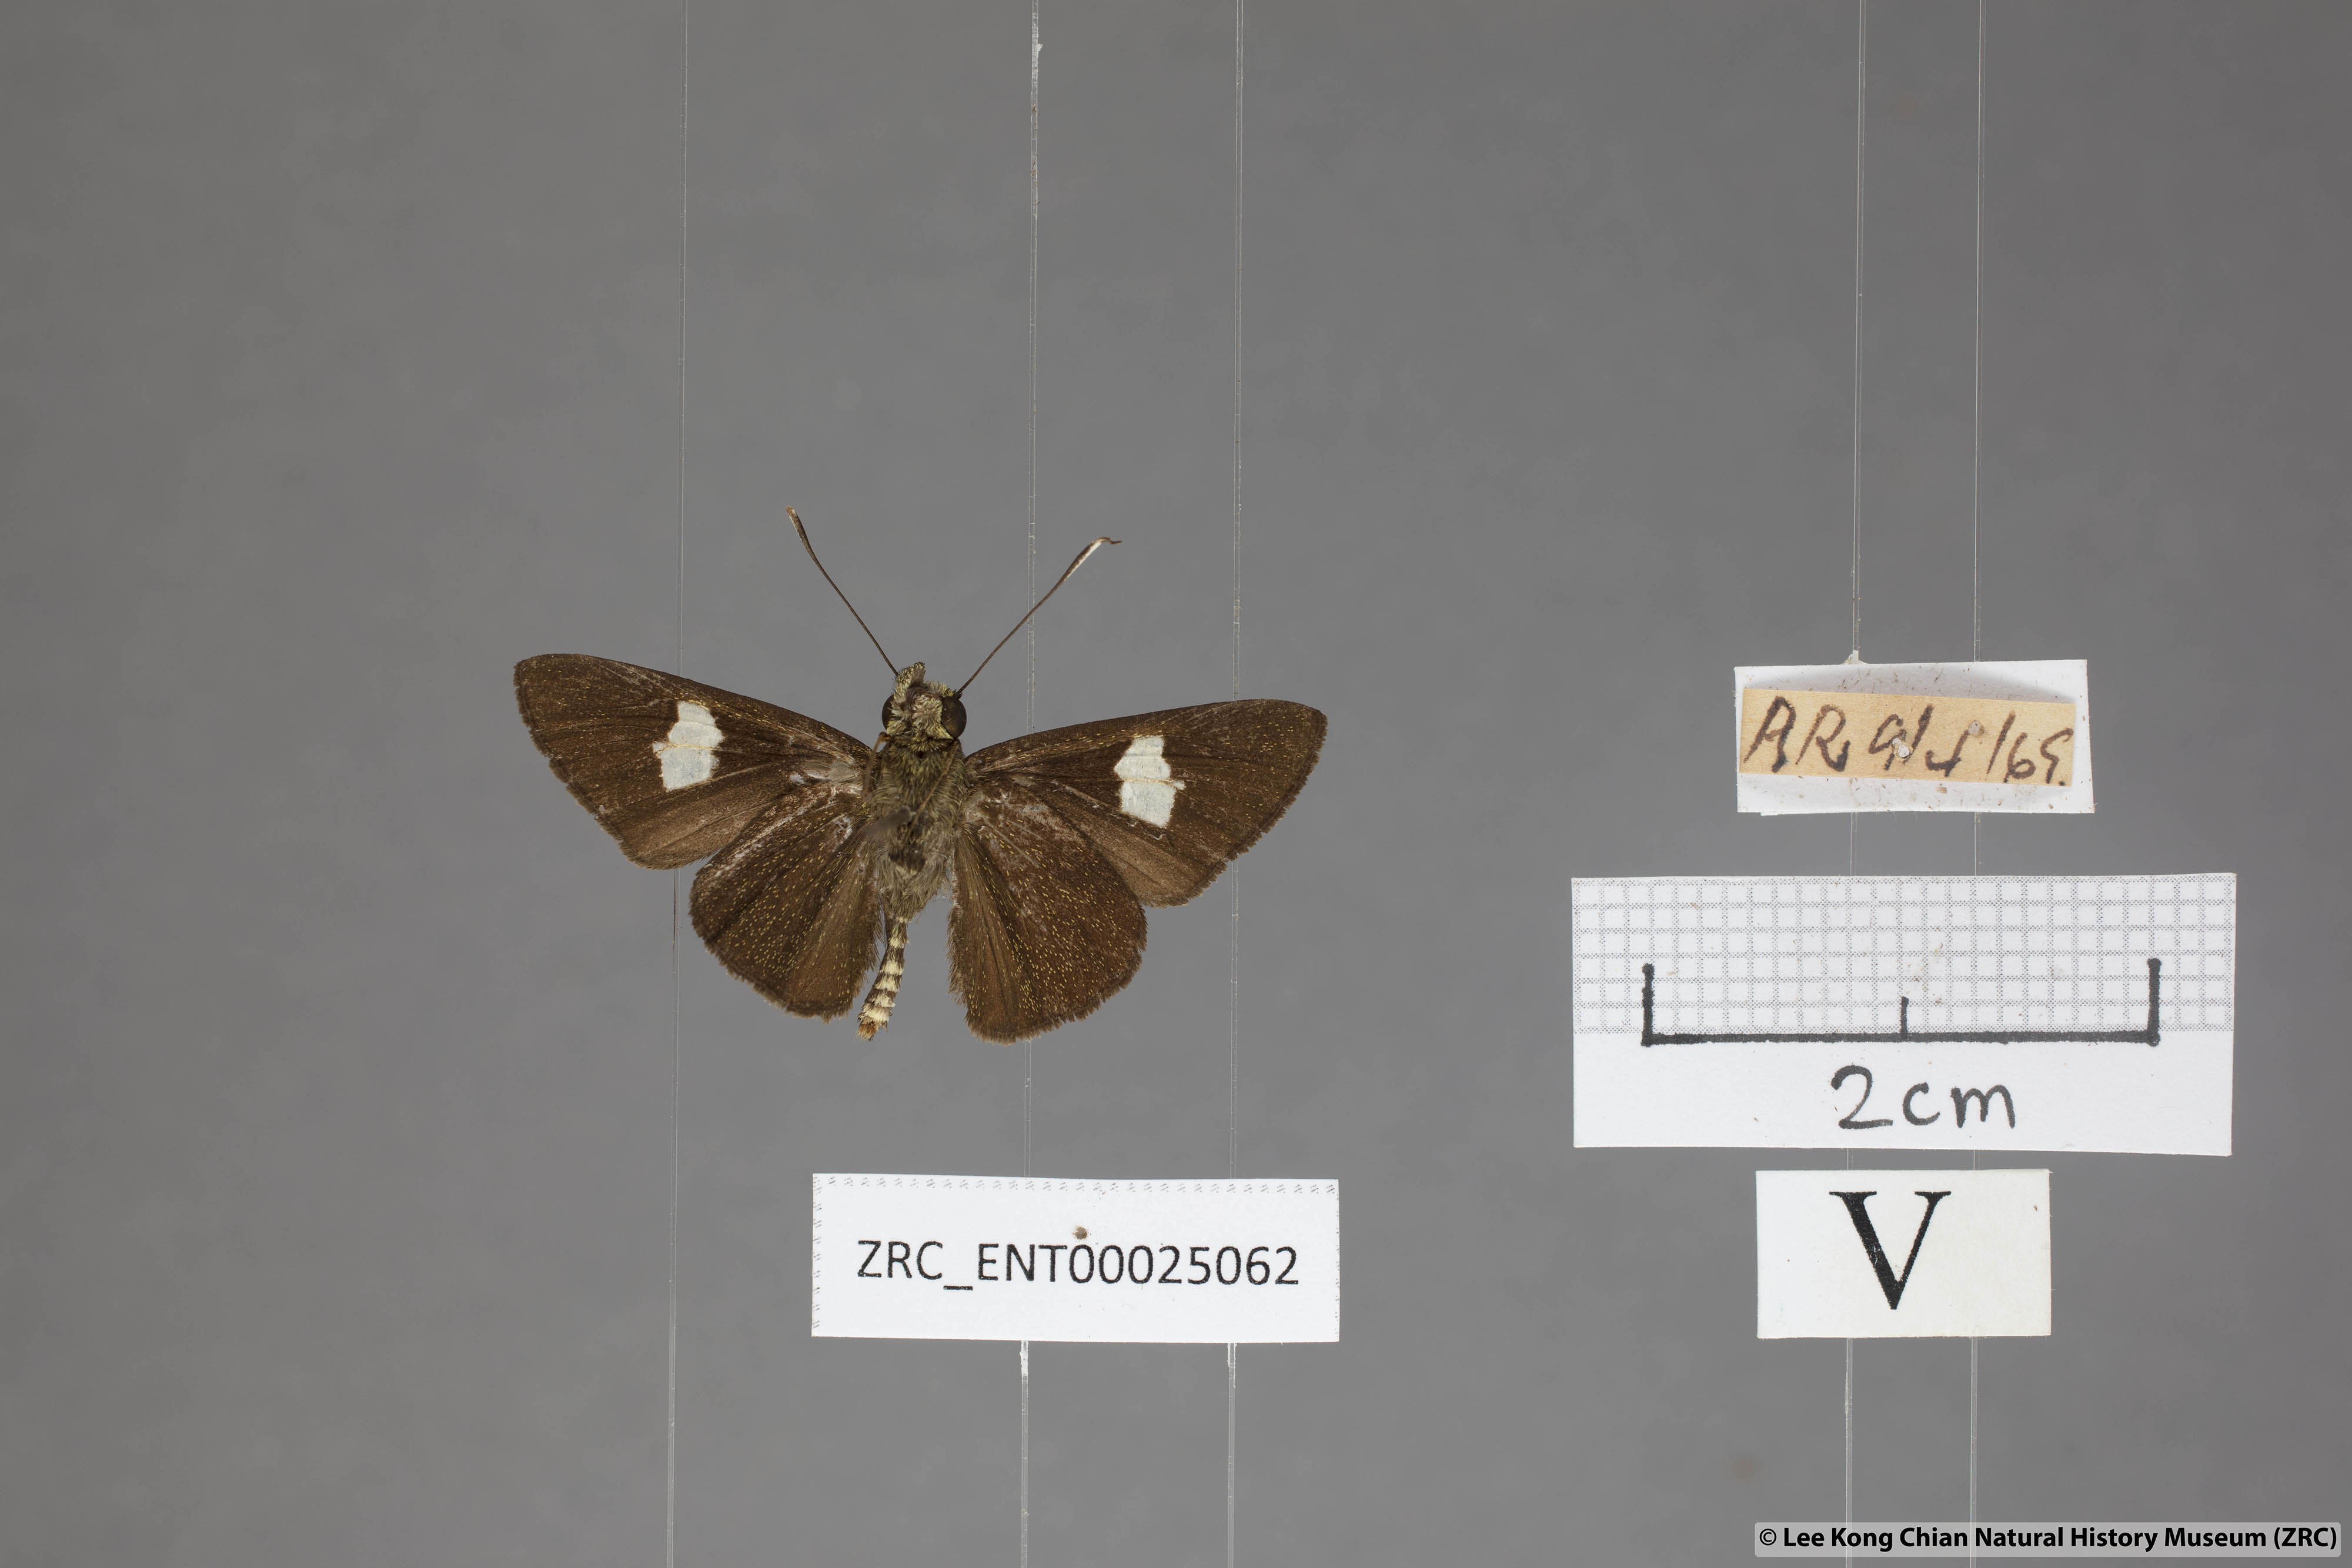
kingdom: Animalia
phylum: Arthropoda
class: Insecta
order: Lepidoptera
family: Hesperiidae
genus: Oerane
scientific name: Oerane microthyrus
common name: White club flitter
